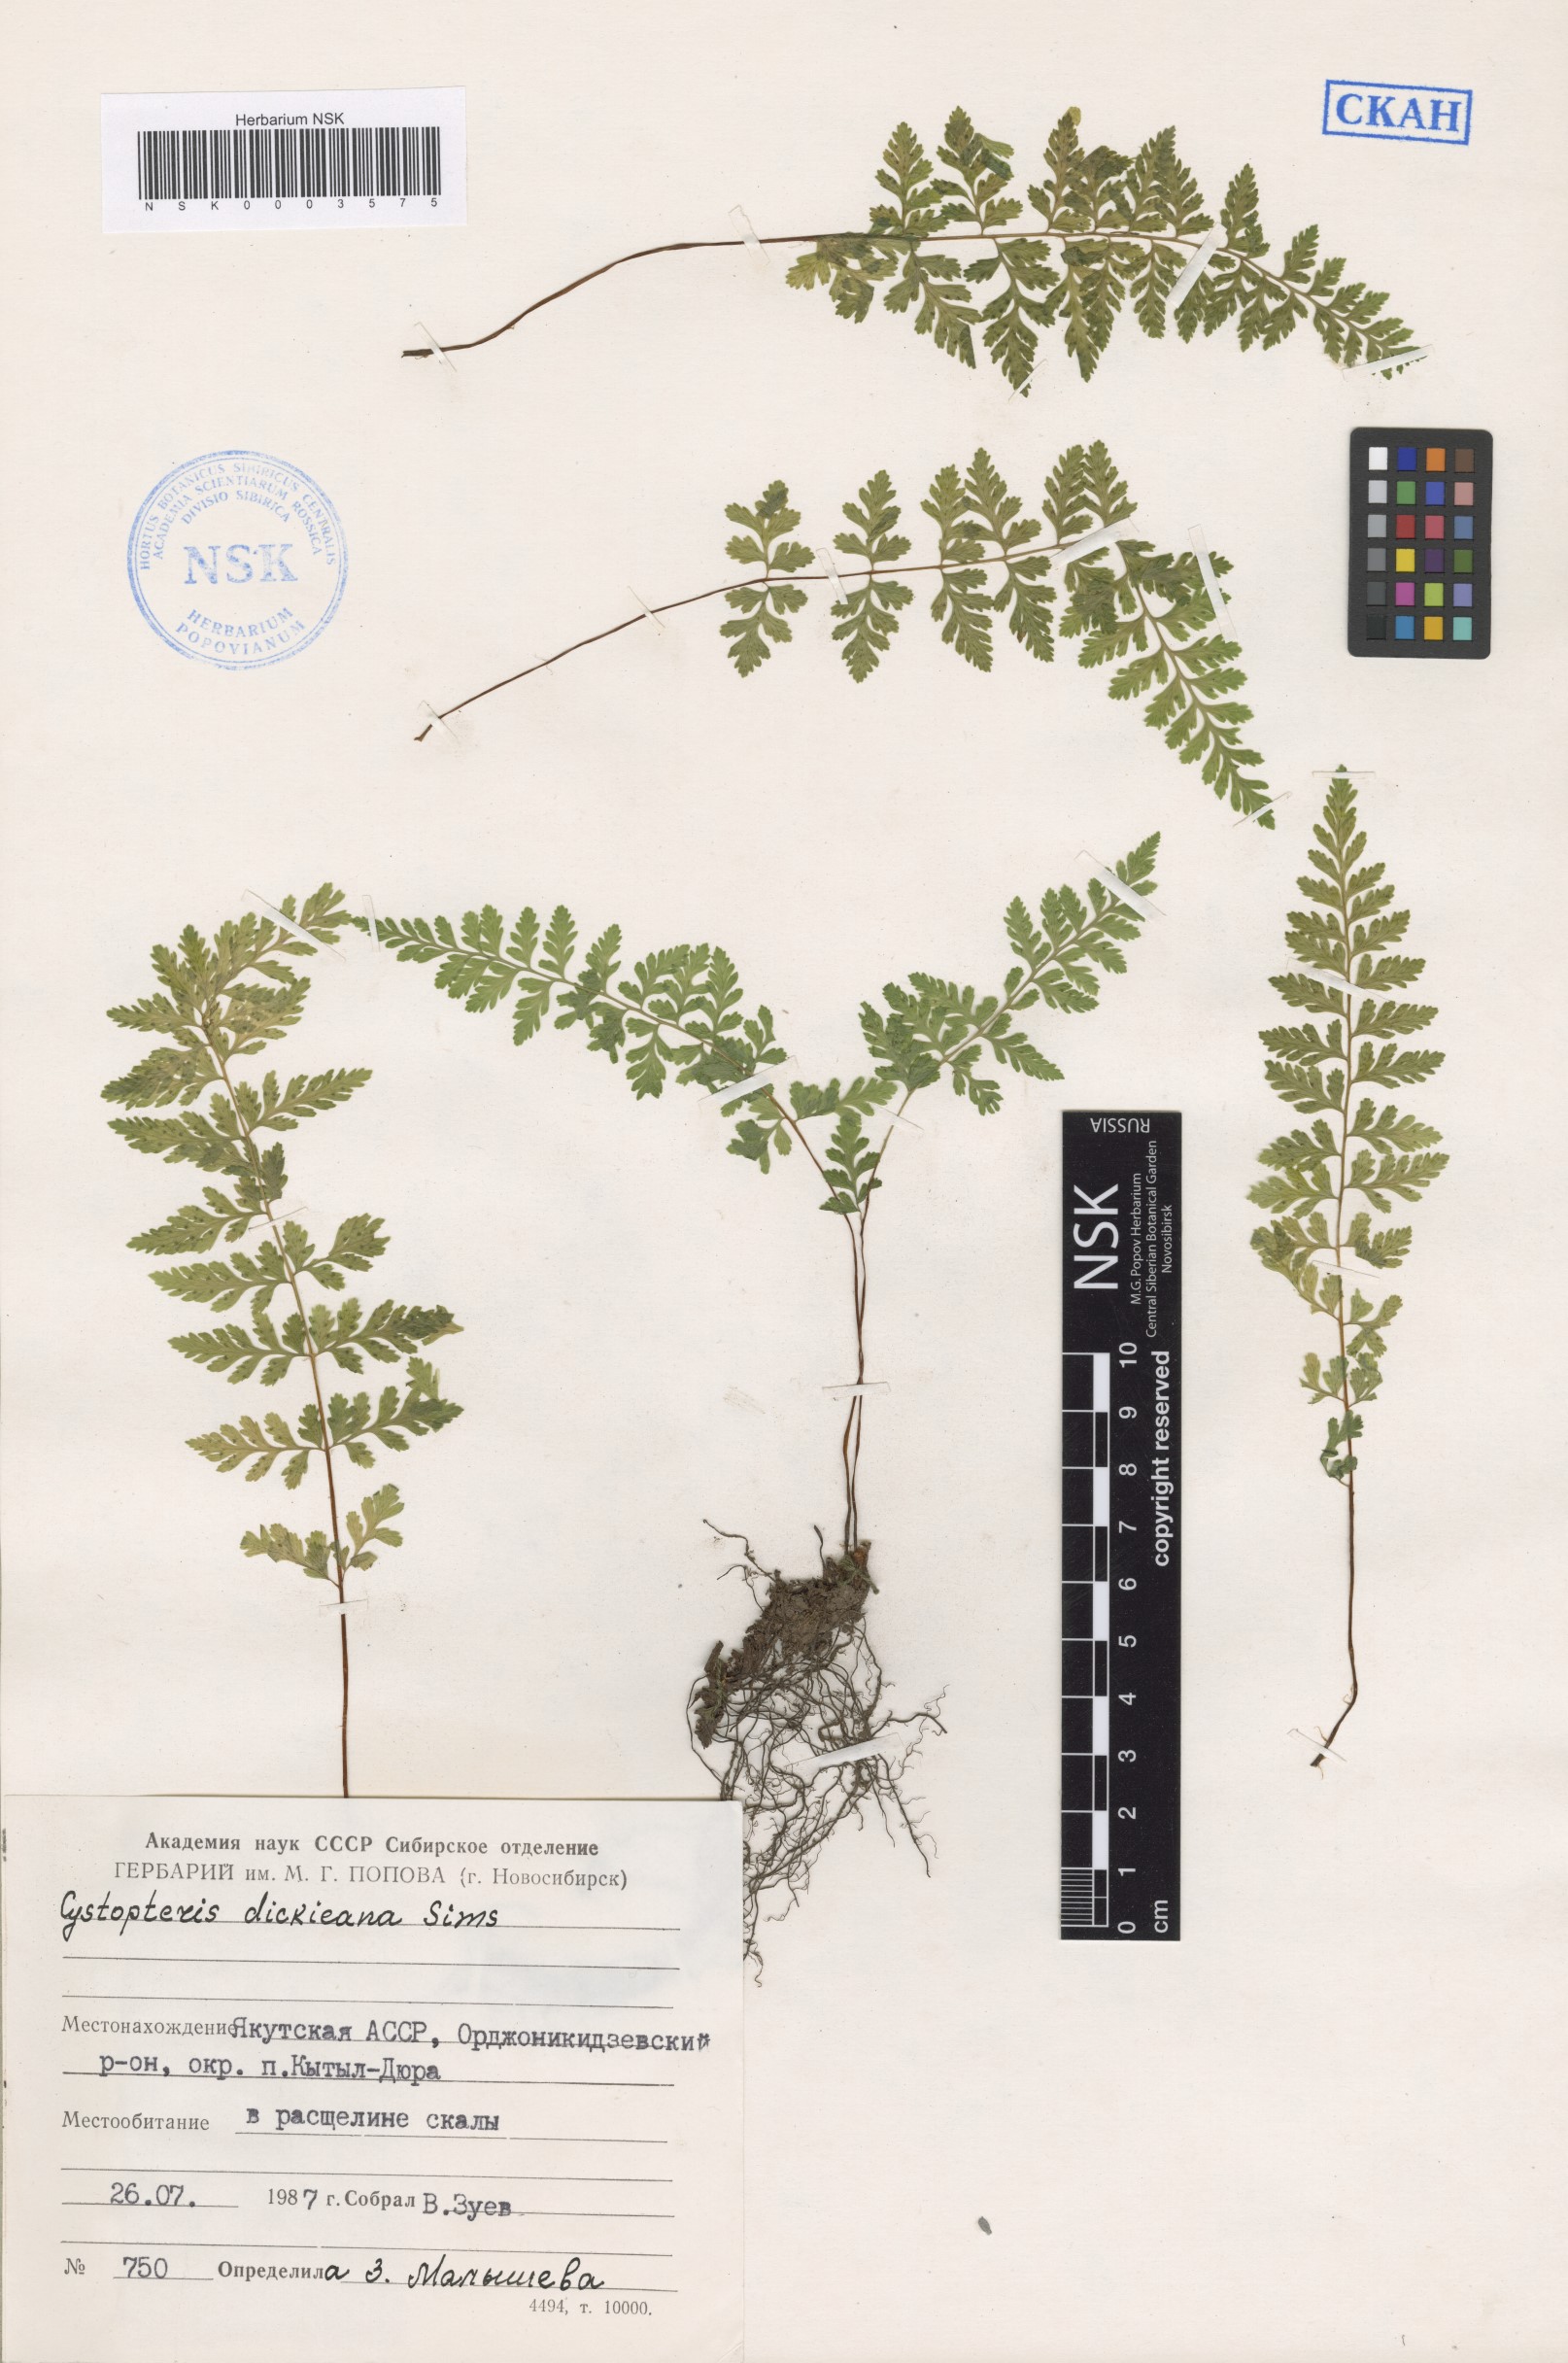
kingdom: Plantae
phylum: Tracheophyta
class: Polypodiopsida
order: Polypodiales
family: Cystopteridaceae
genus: Cystopteris
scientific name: Cystopteris dickieana
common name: Dickie's bladder-fern
